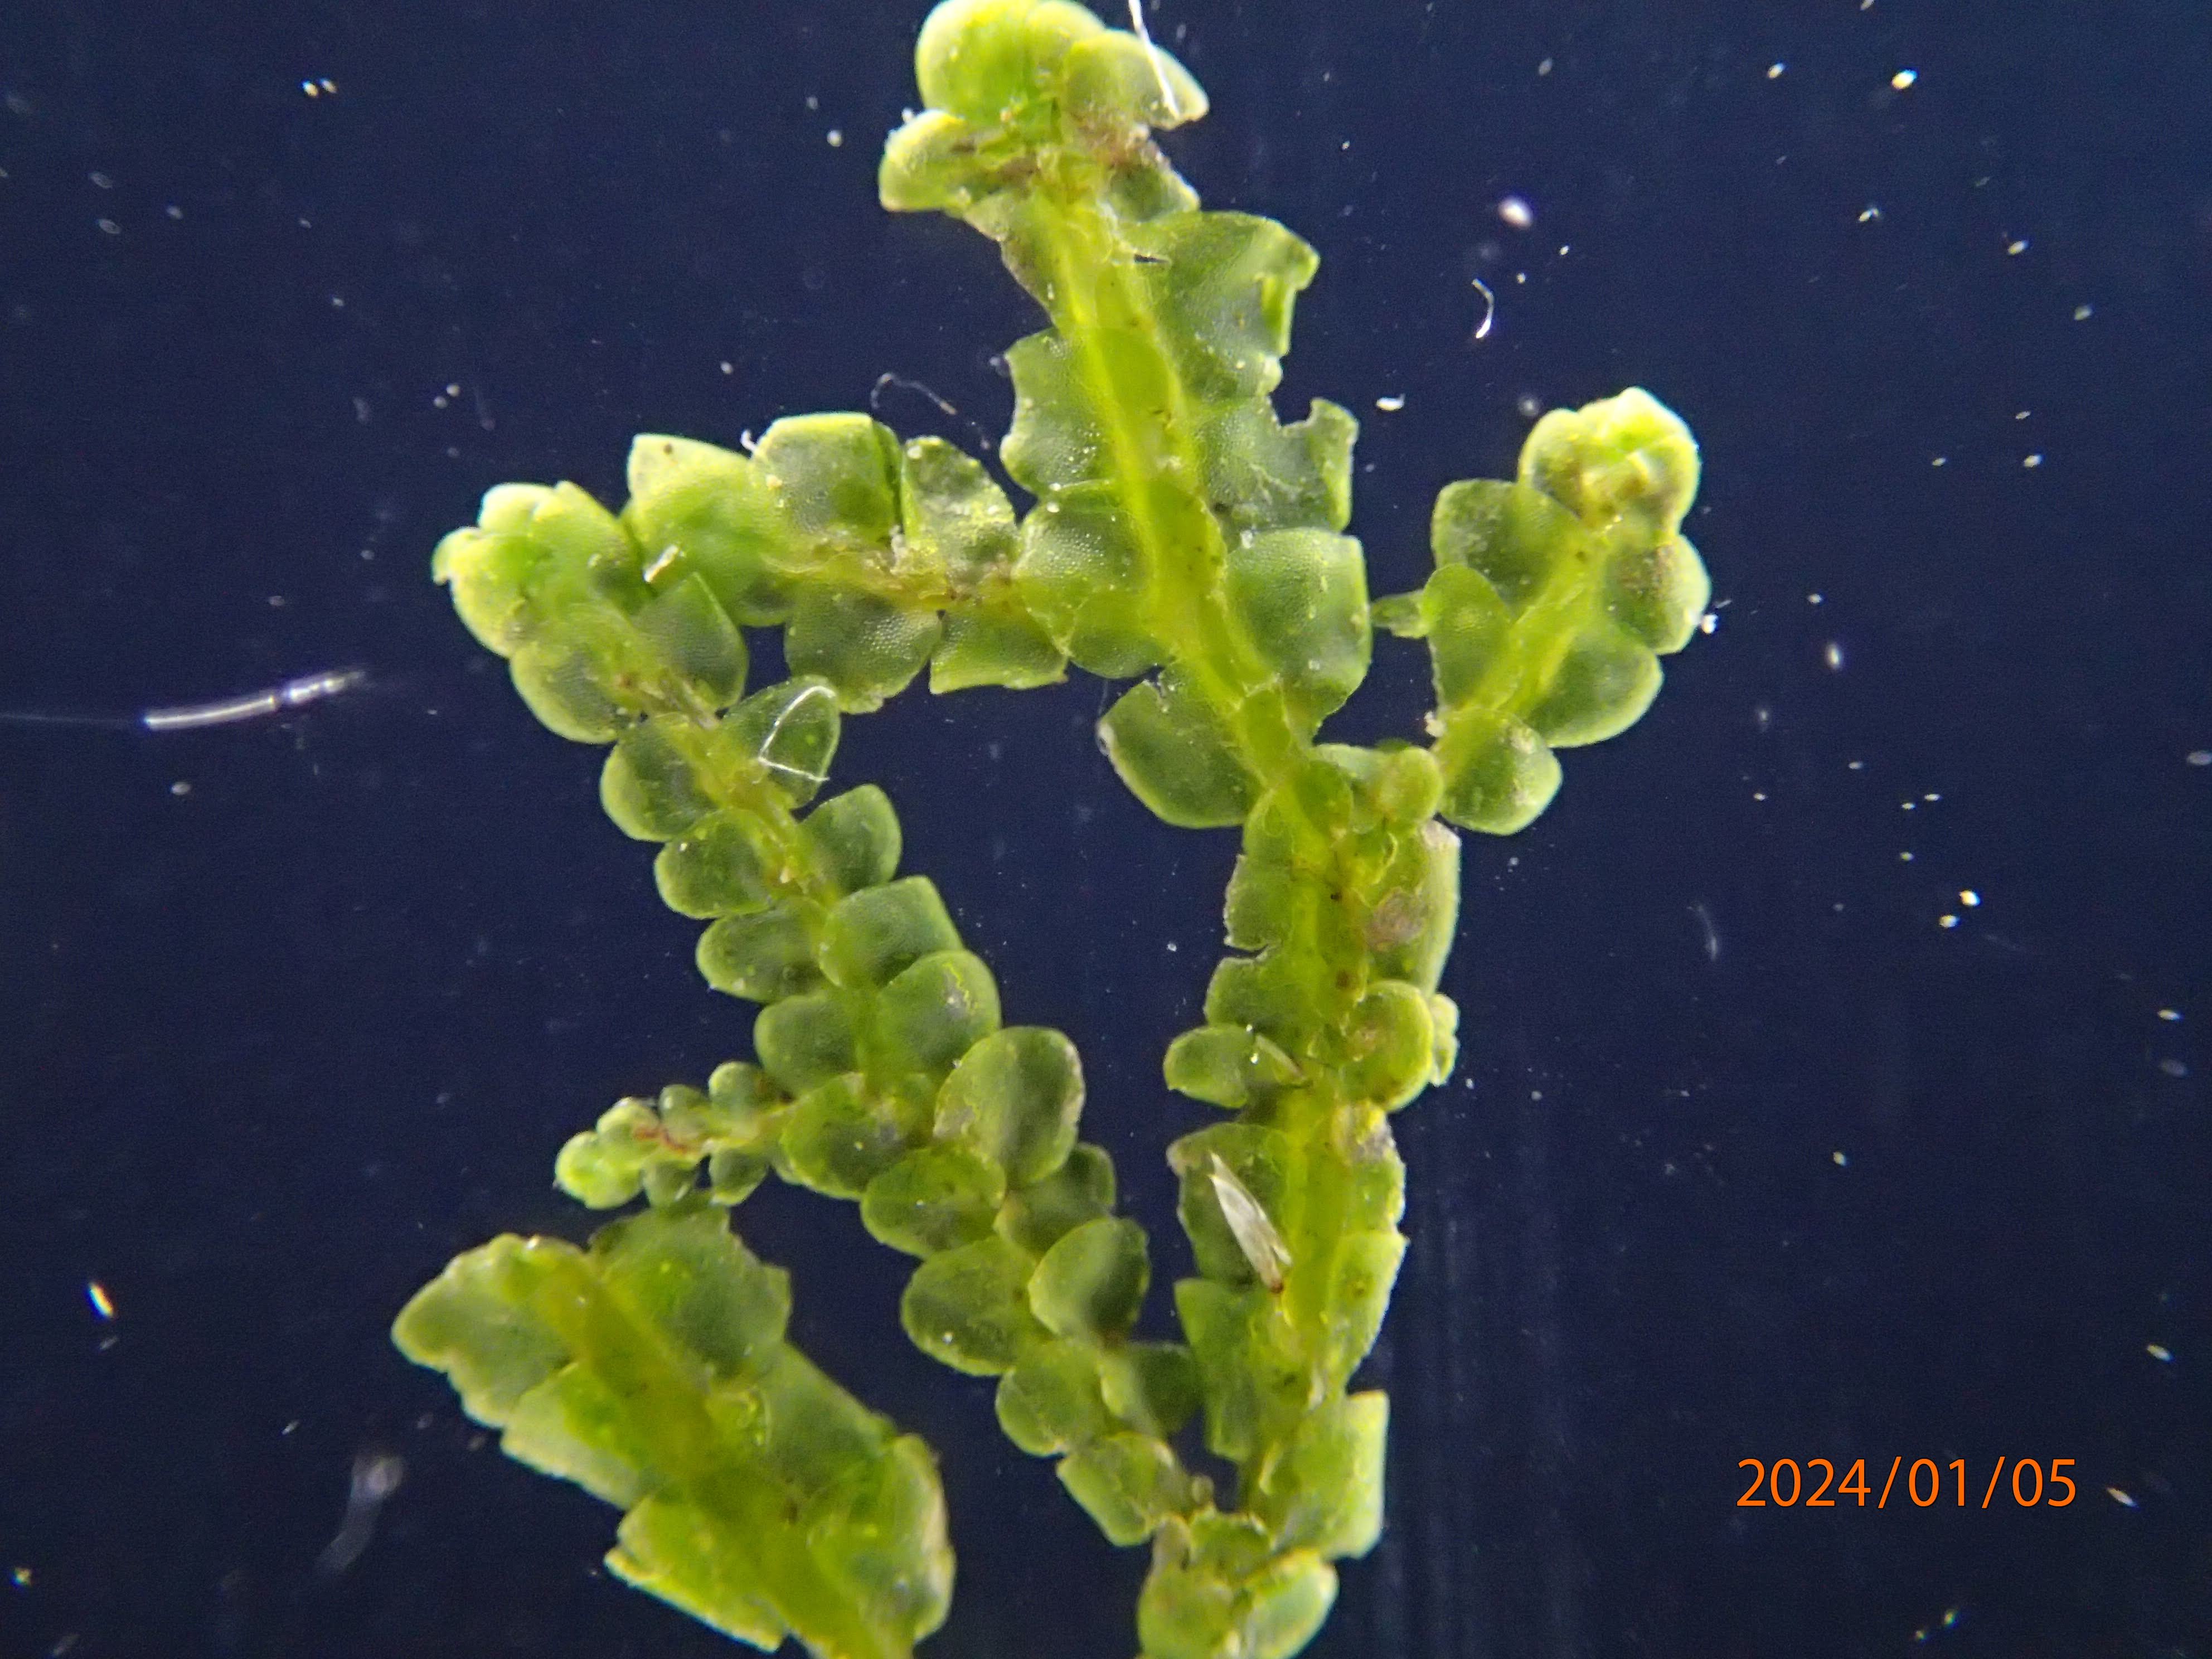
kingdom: Plantae
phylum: Marchantiophyta
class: Jungermanniopsida
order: Porellales
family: Porellaceae
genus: Porella
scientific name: Porella cordaeana
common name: Bæk-skælryg
